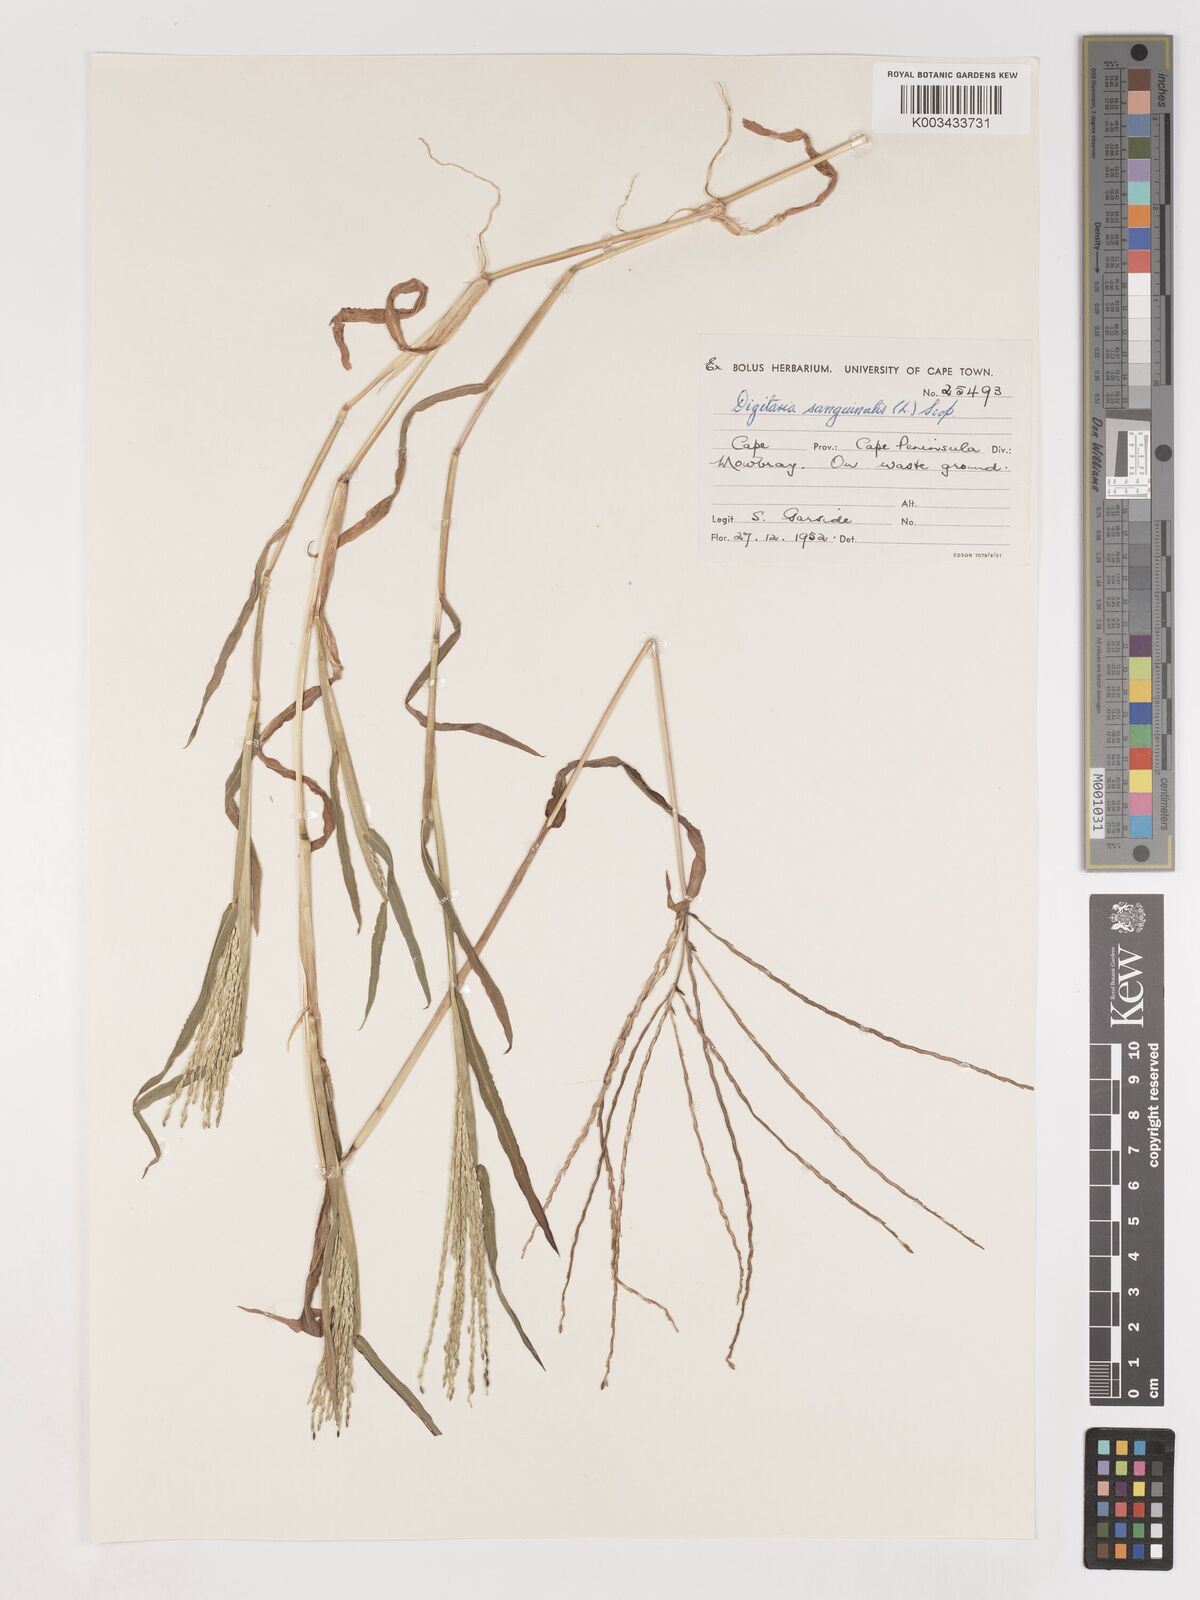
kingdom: Plantae
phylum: Tracheophyta
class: Liliopsida
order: Poales
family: Poaceae
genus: Digitaria
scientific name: Digitaria sanguinalis
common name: Hairy crabgrass
